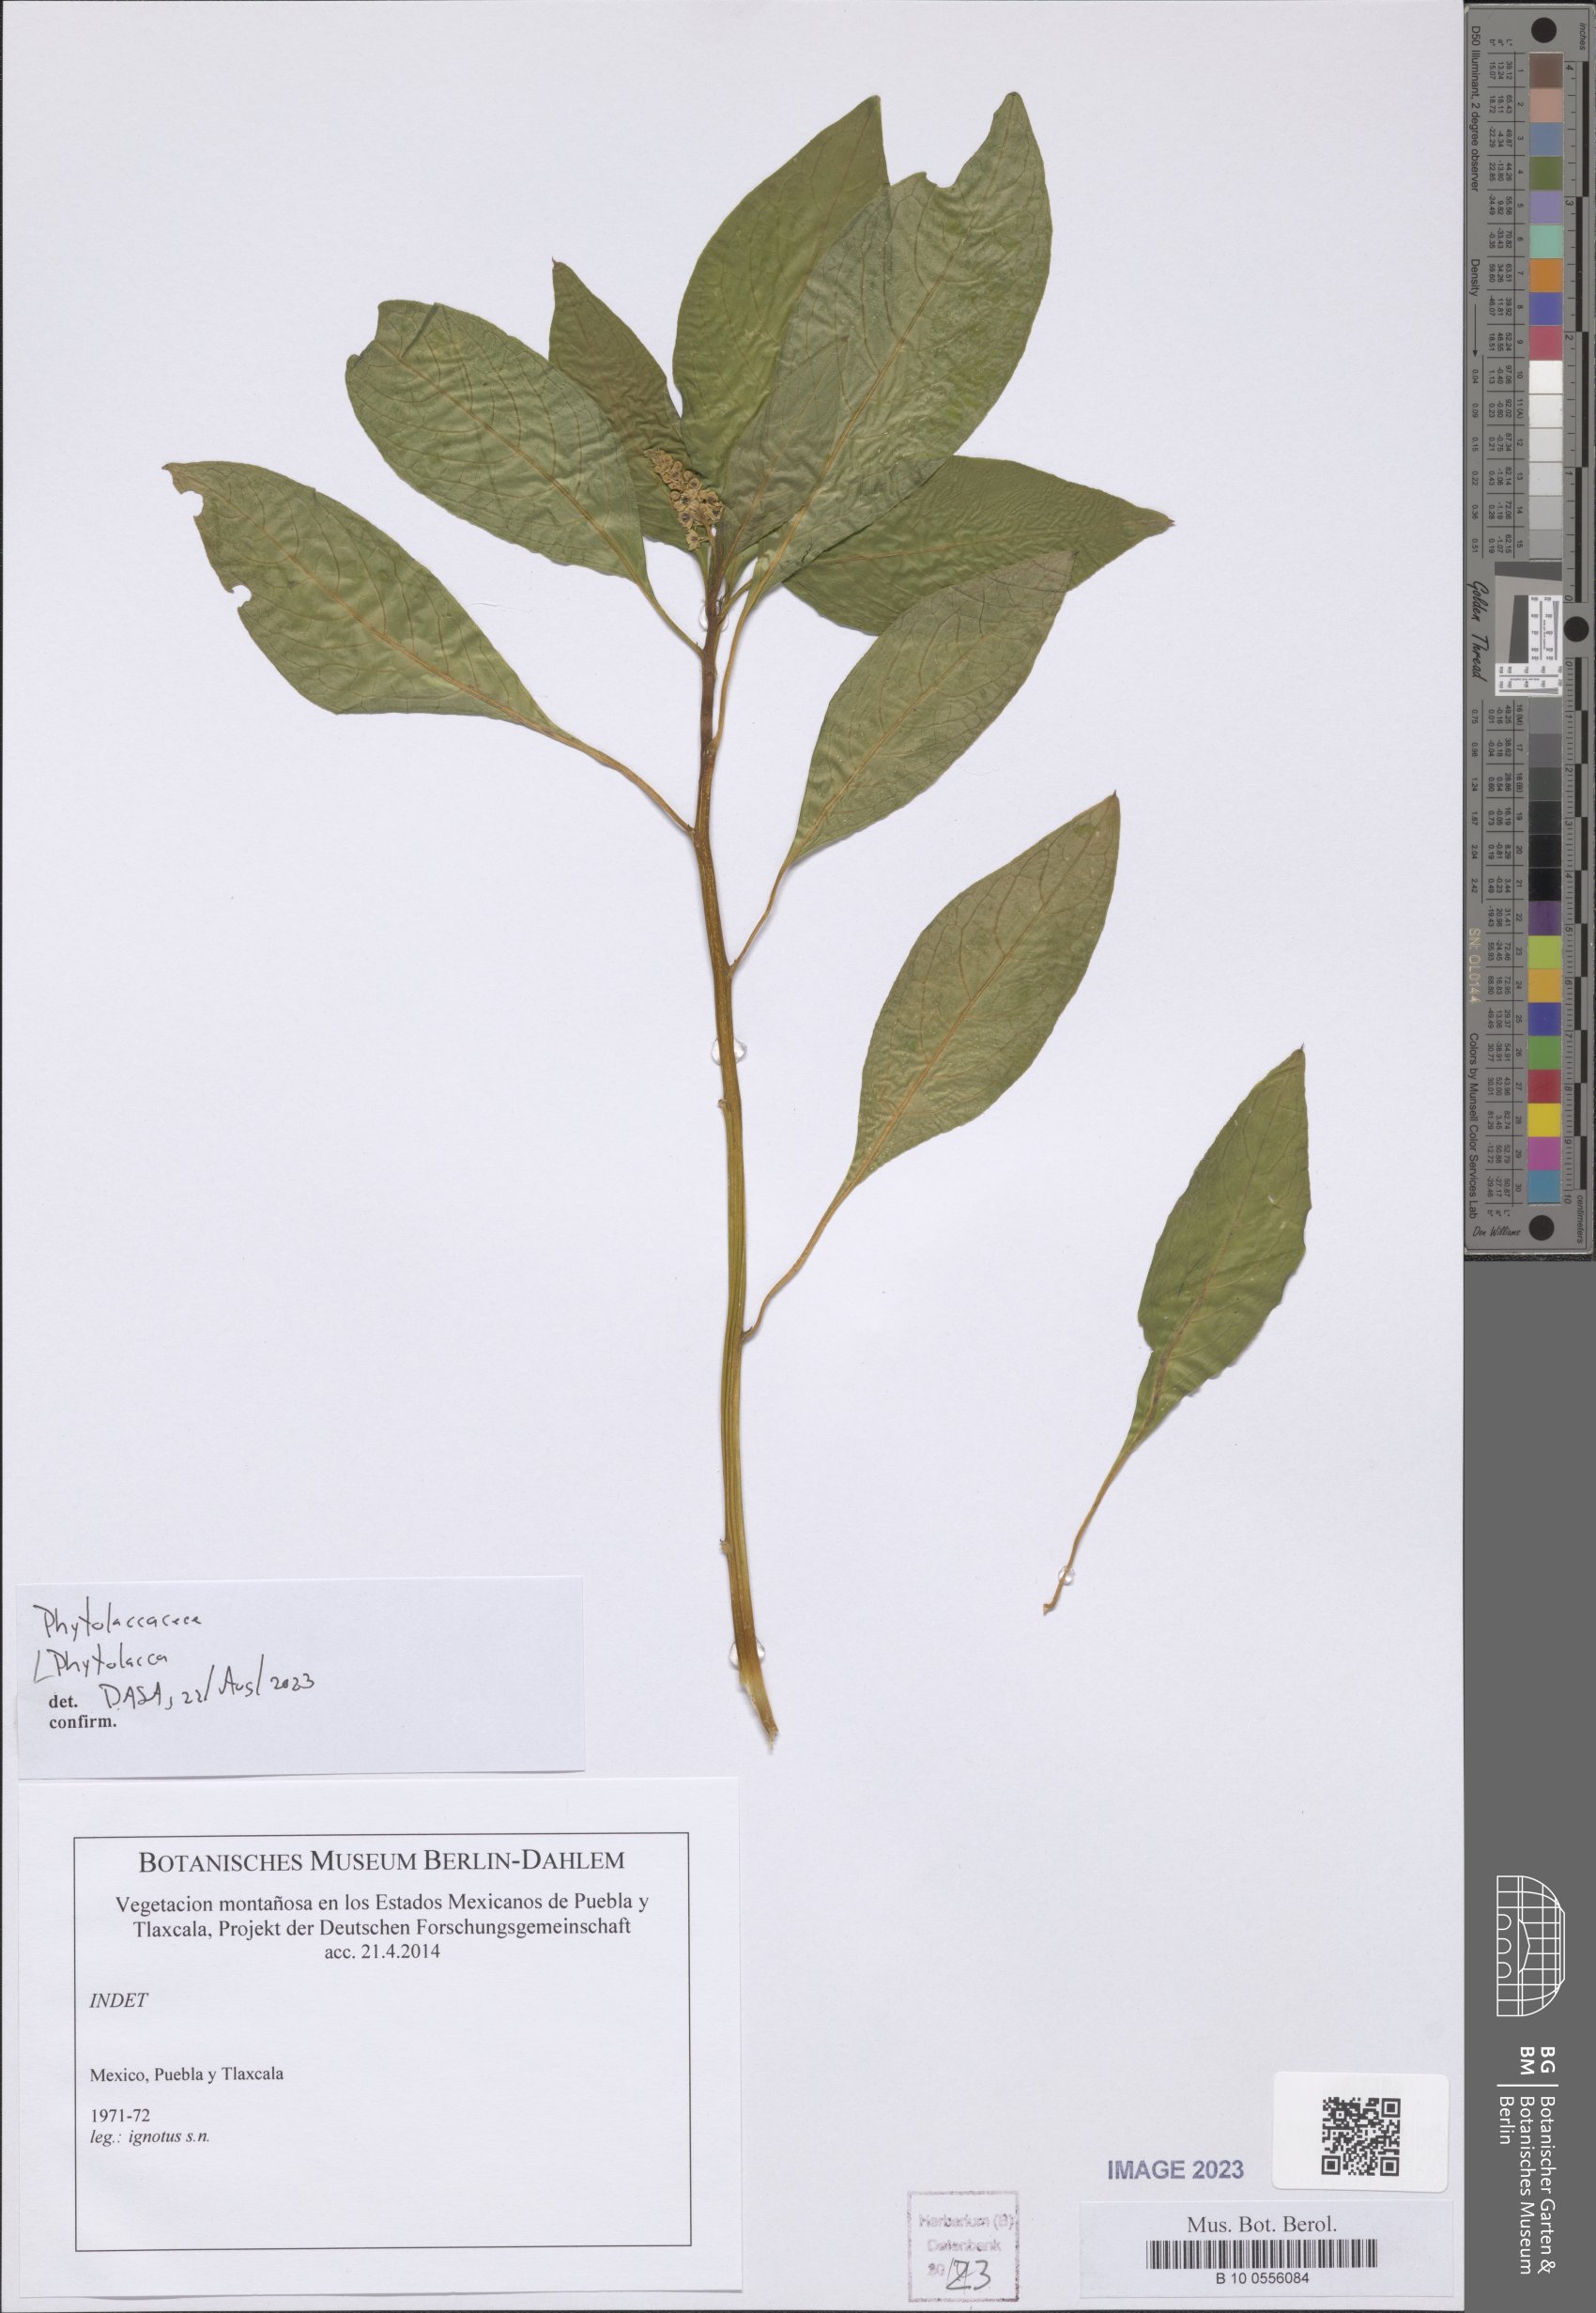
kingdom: Plantae
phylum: Tracheophyta
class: Magnoliopsida
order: Caryophyllales
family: Phytolaccaceae
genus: Phytolacca
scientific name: Phytolacca
